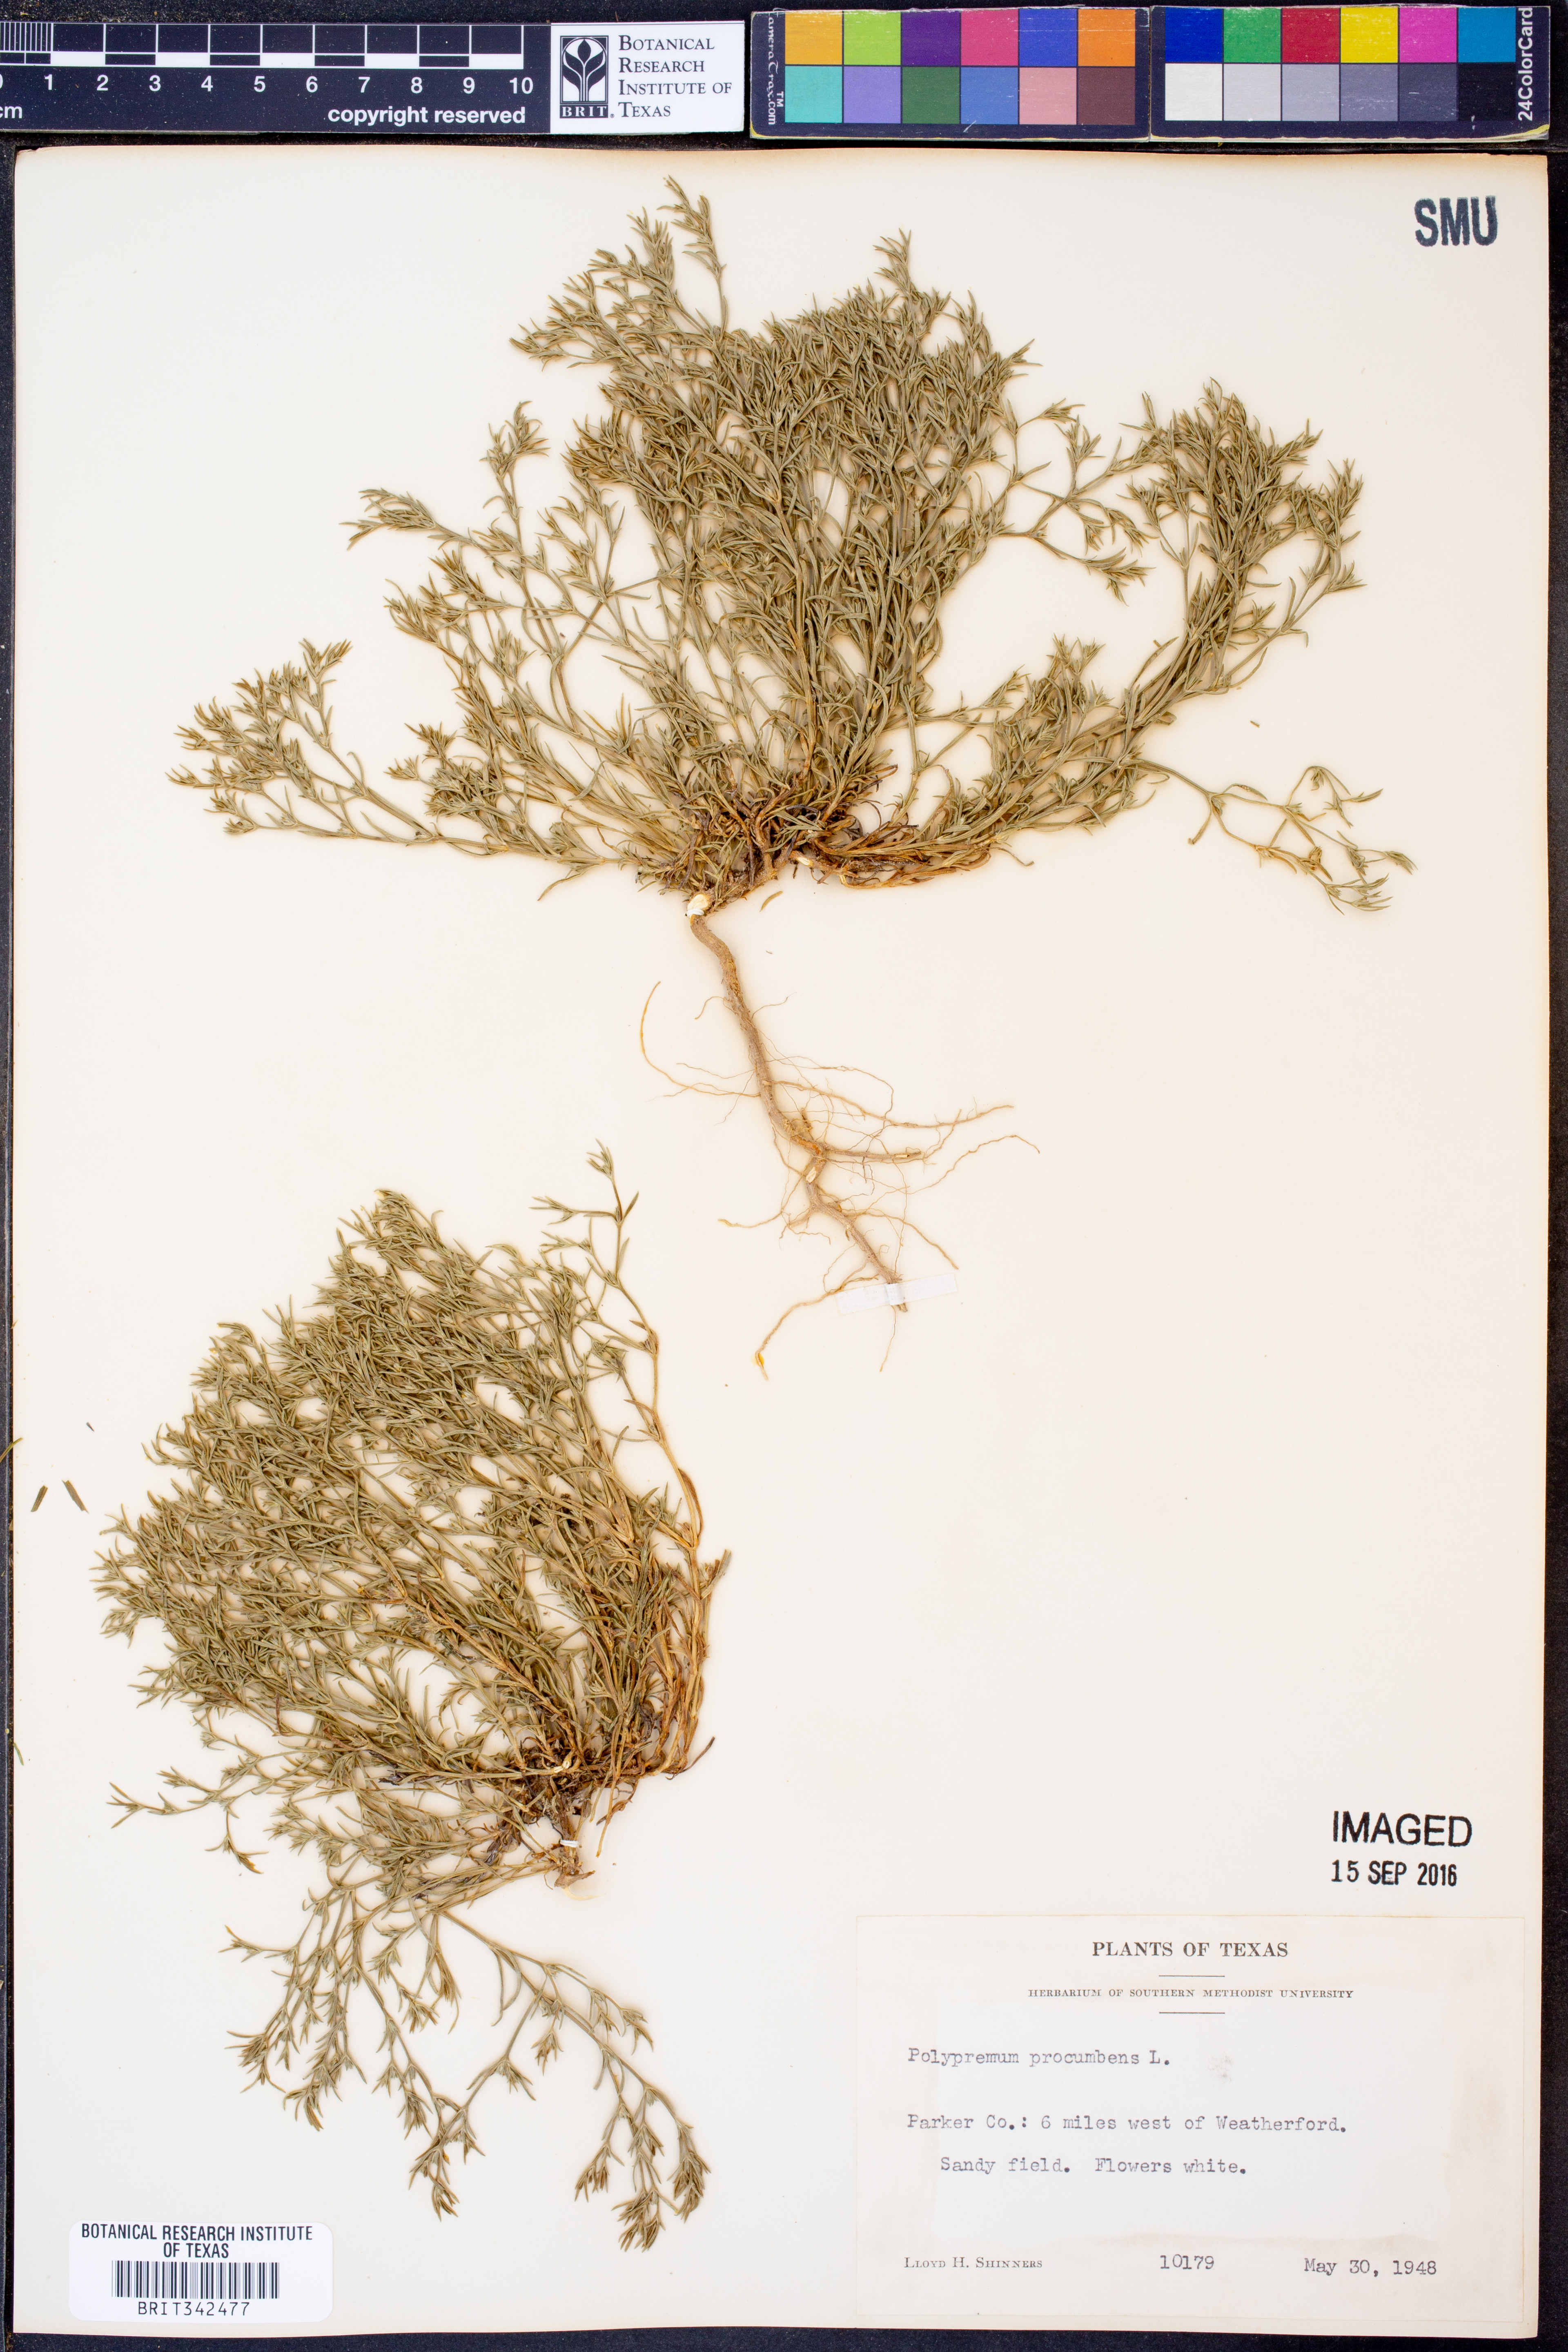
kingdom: Plantae
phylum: Tracheophyta
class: Magnoliopsida
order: Lamiales
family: Tetrachondraceae
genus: Polypremum
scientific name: Polypremum procumbens
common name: Juniper-leaf
